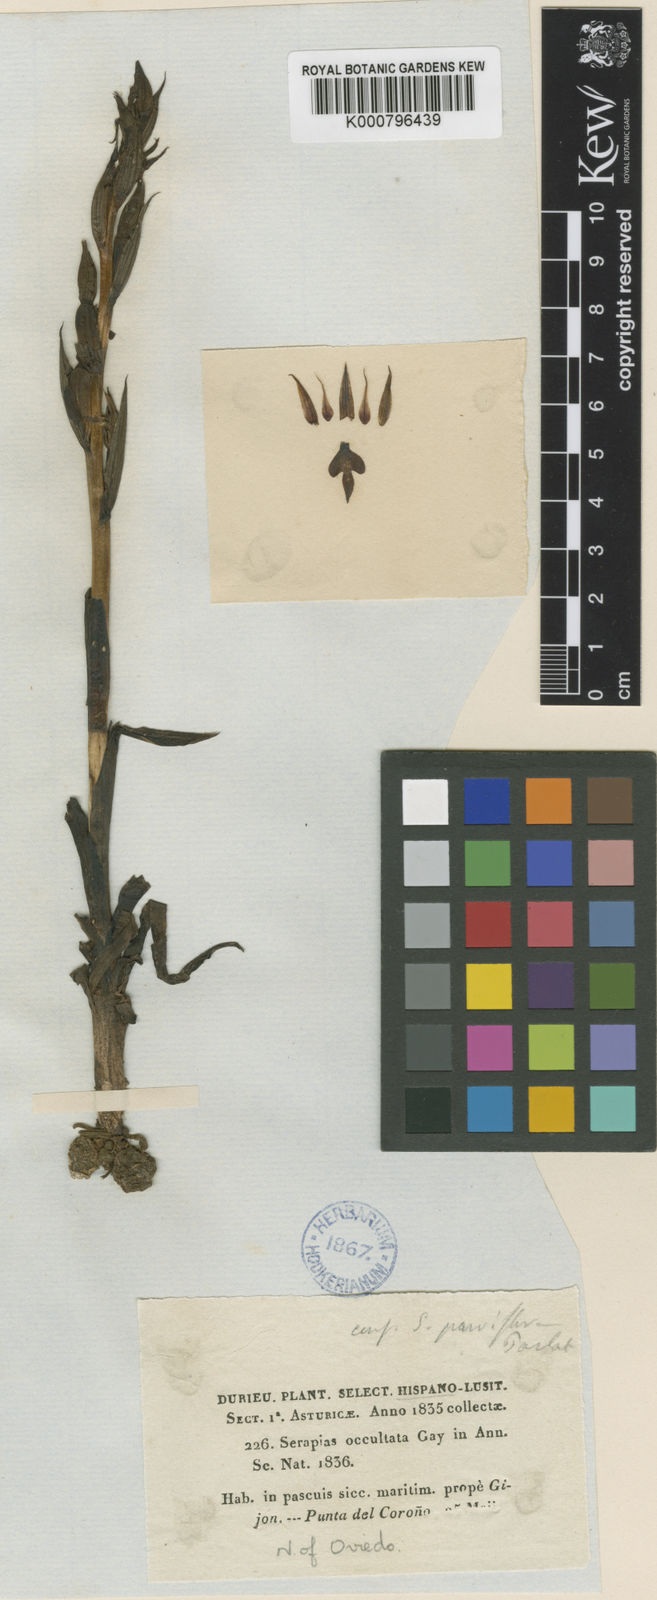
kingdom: Plantae
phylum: Tracheophyta
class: Liliopsida
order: Asparagales
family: Orchidaceae
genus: Serapias
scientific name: Serapias parviflora
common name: Small-flowered tongue-orchid
